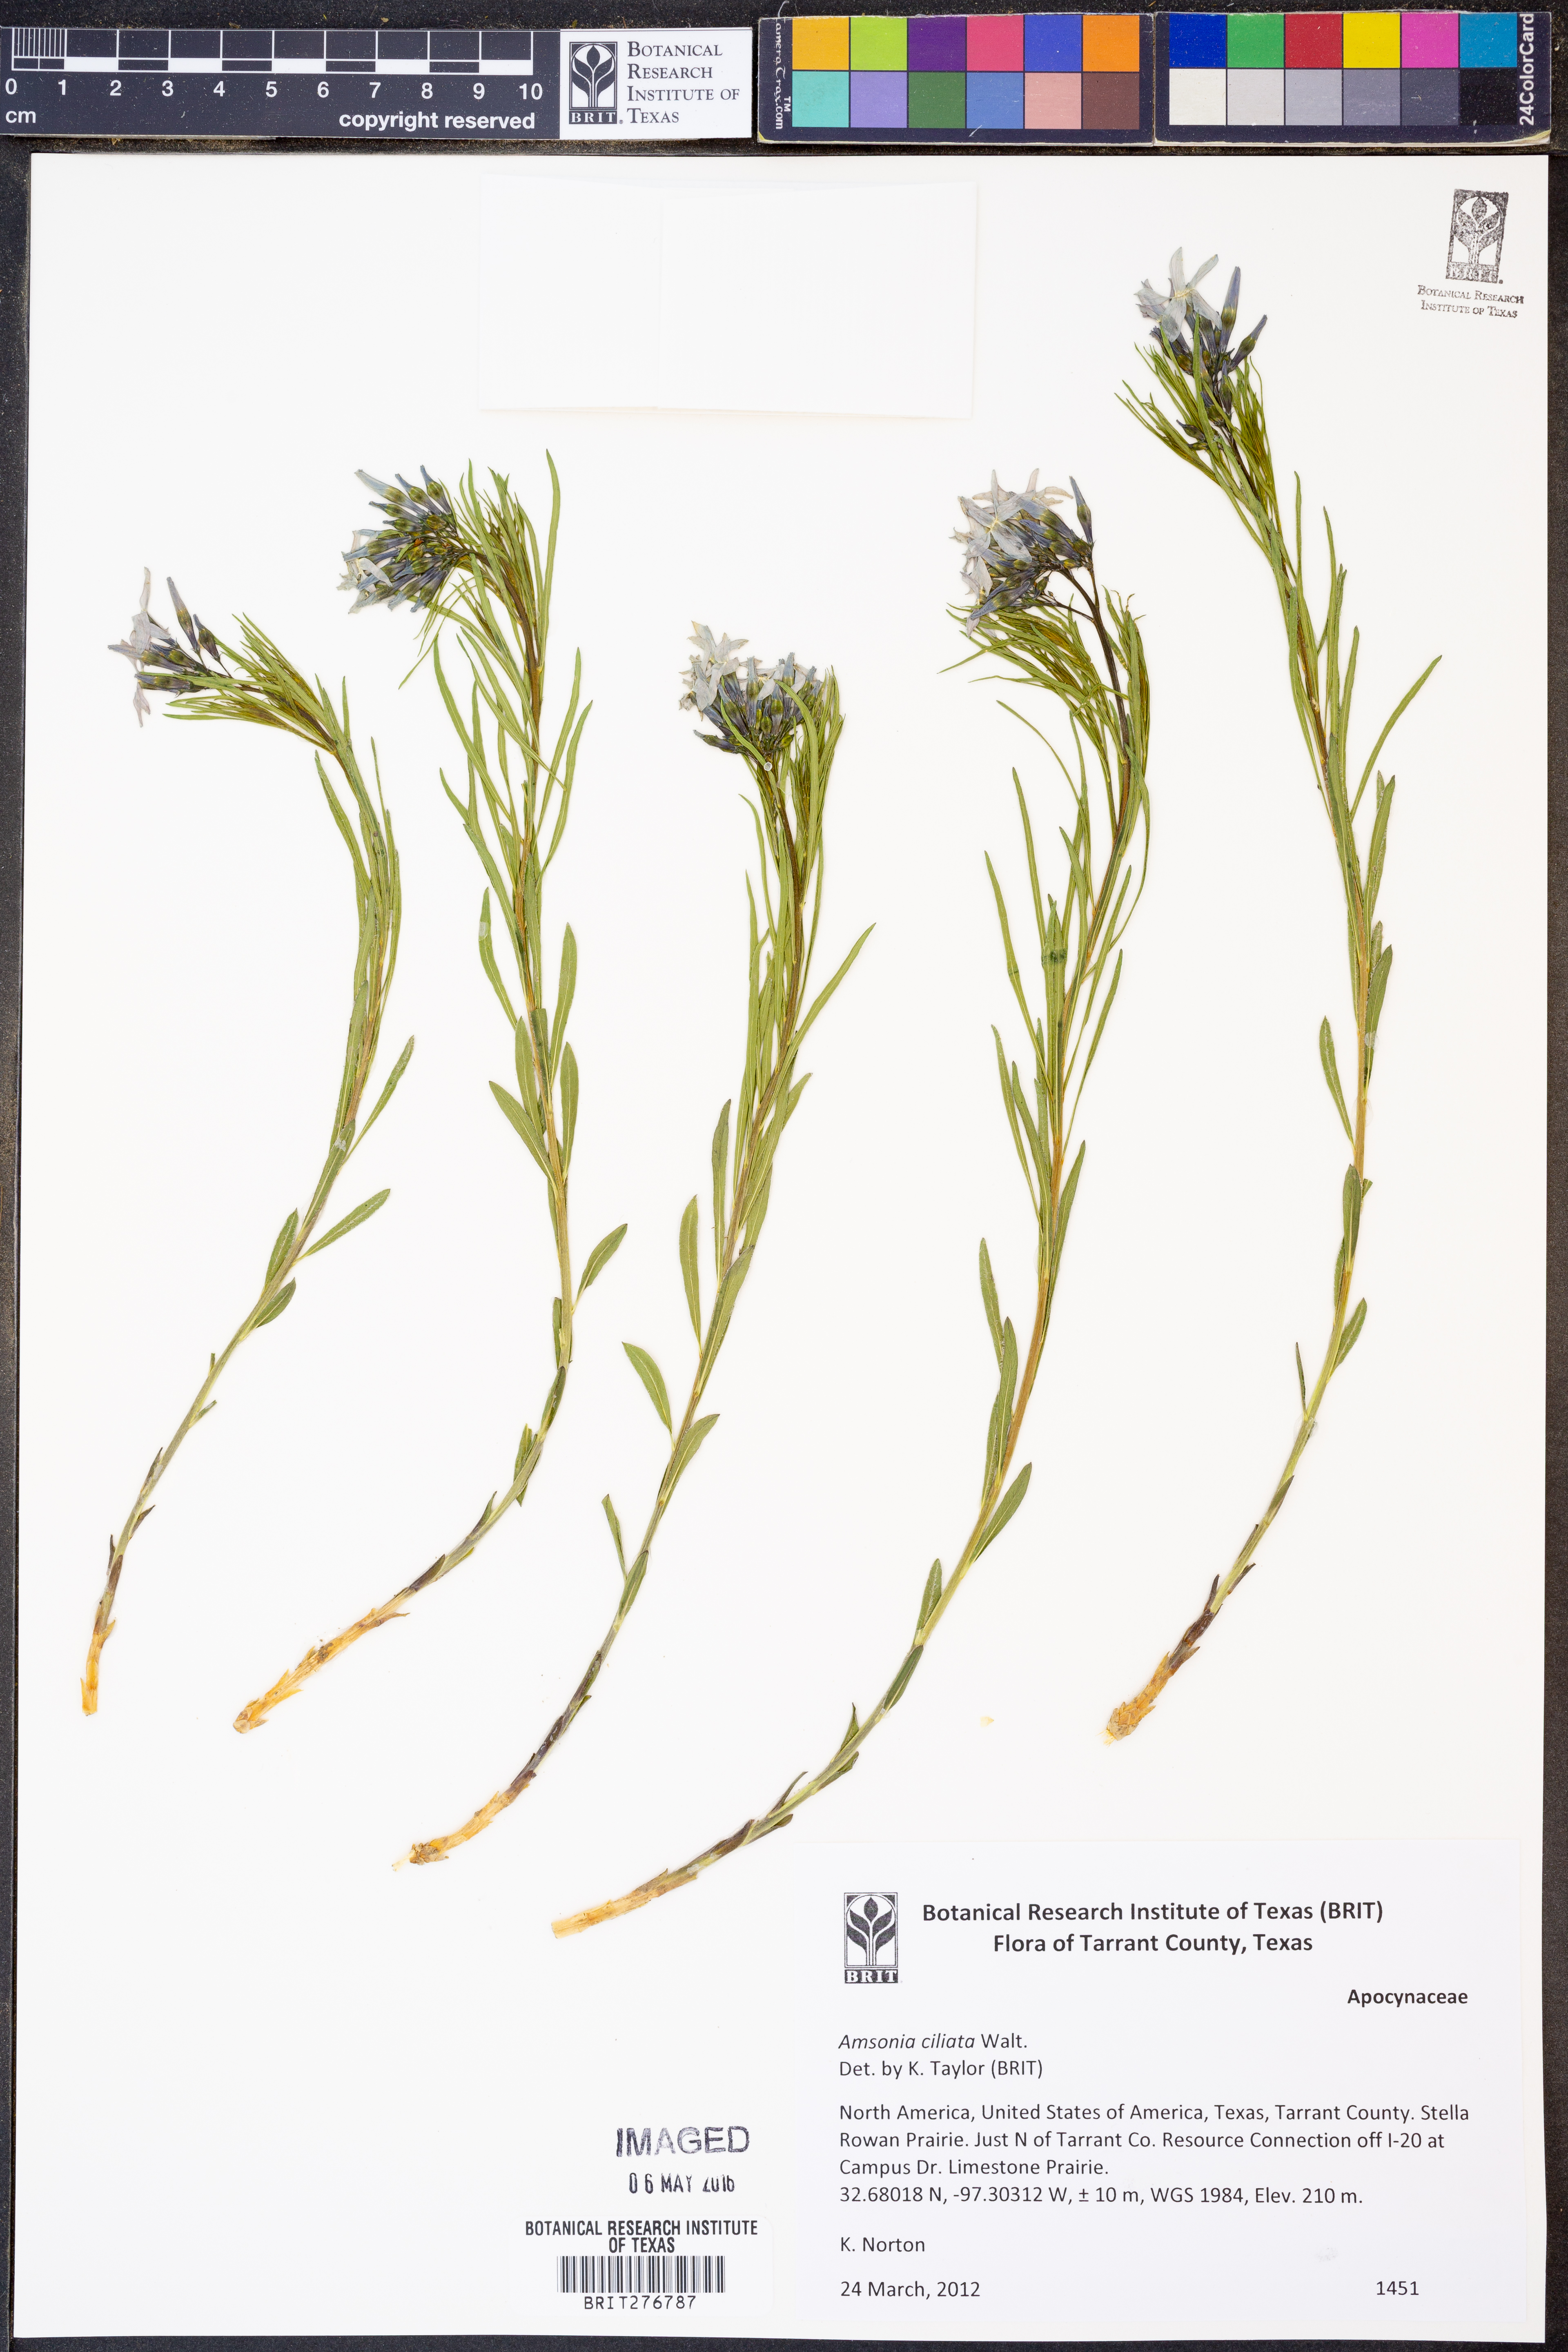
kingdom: Plantae
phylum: Tracheophyta
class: Magnoliopsida
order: Gentianales
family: Apocynaceae
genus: Amsonia
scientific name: Amsonia ciliata
